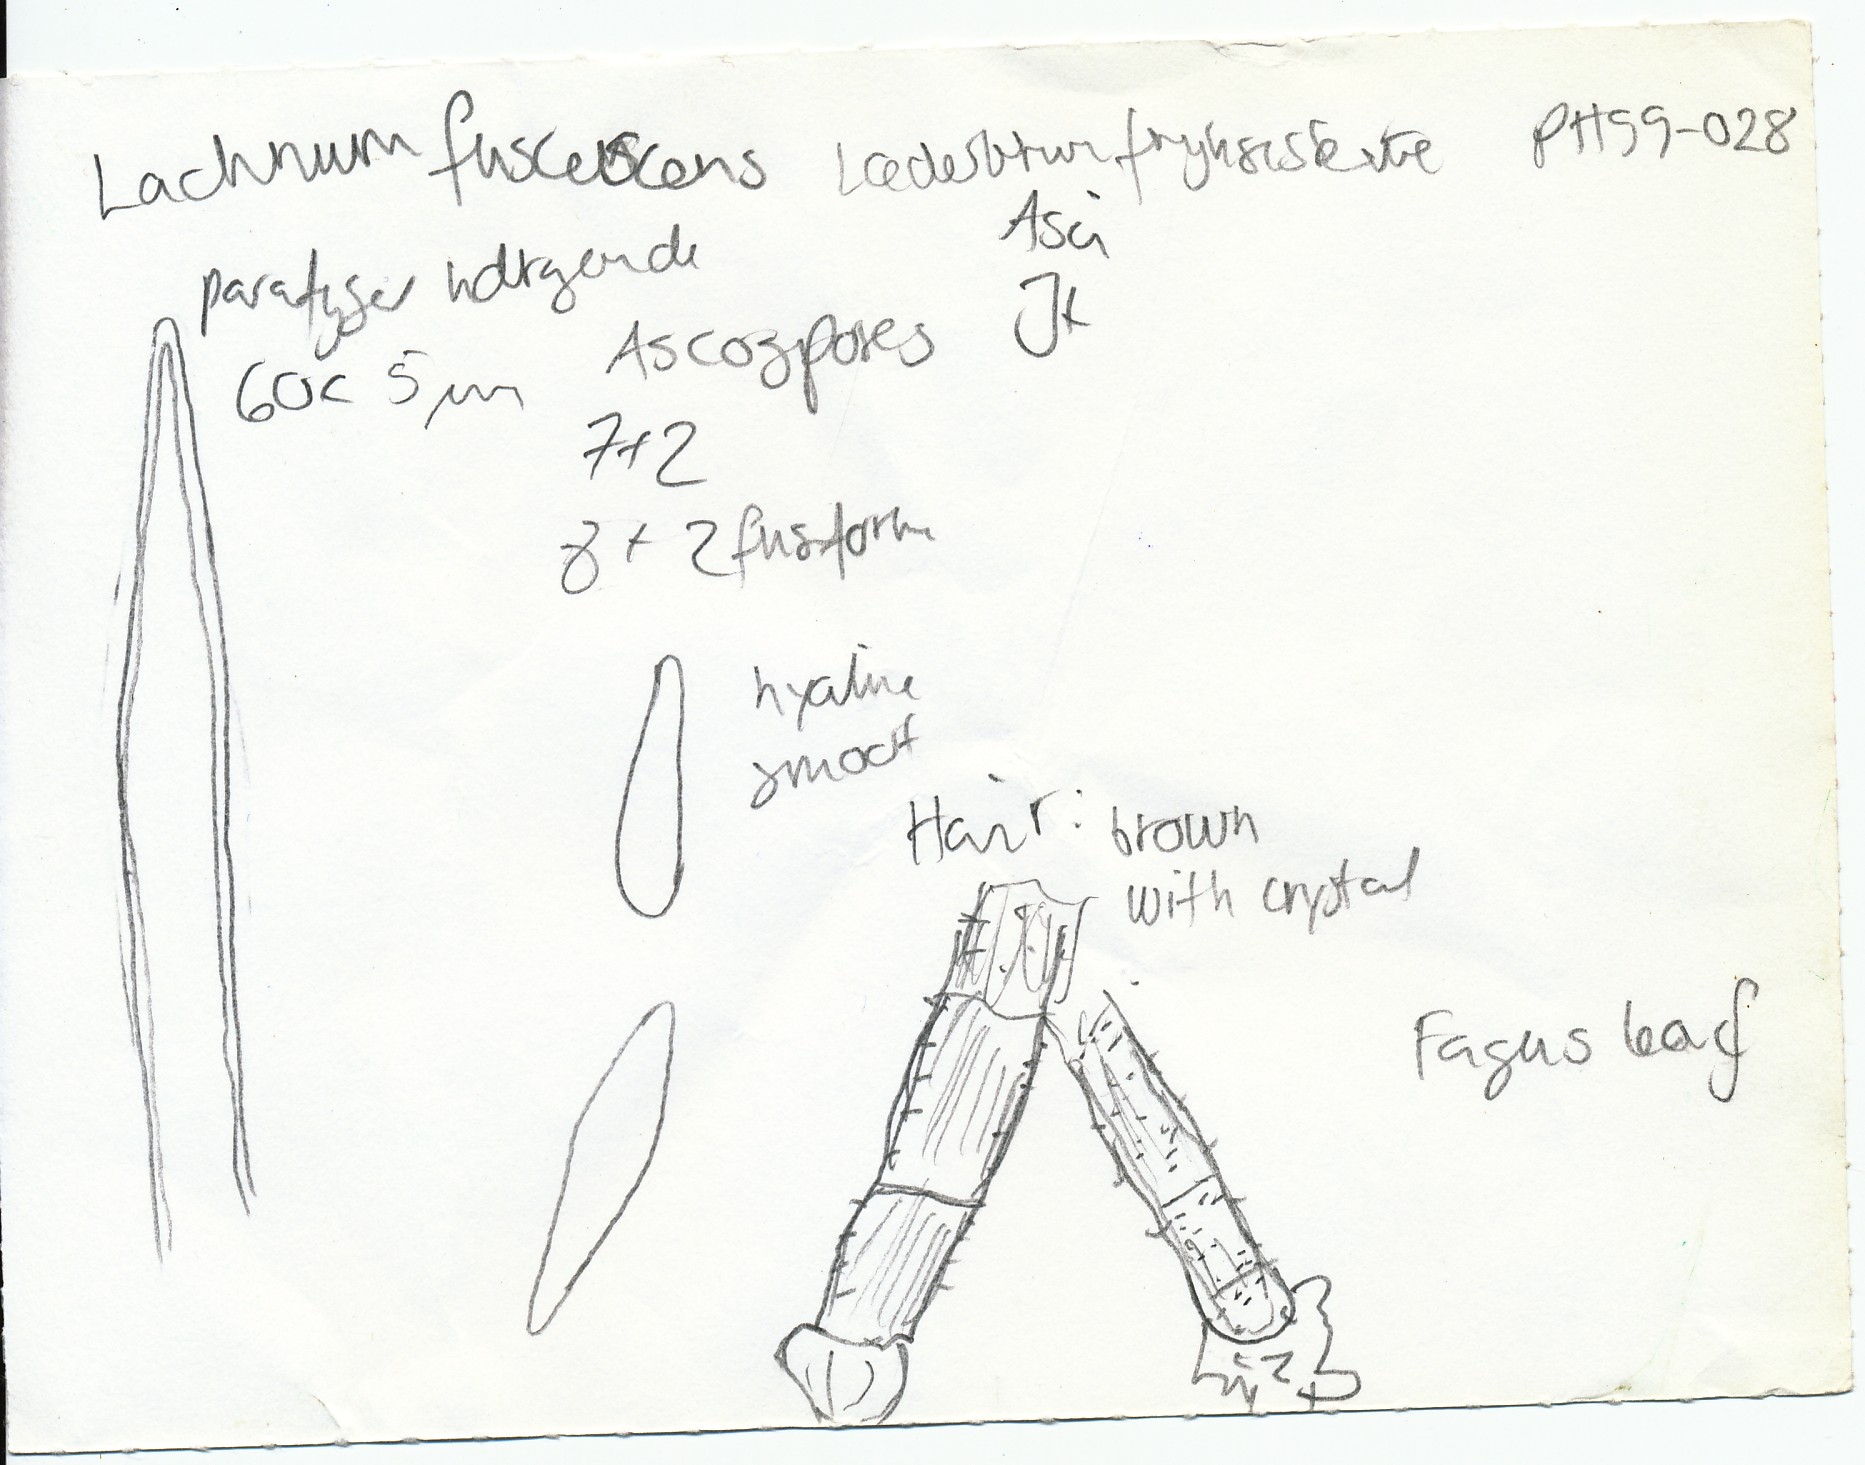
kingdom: Fungi
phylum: Ascomycota
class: Orbiliomycetes
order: Orbiliales
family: Orbiliaceae
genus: Hyalorbilia
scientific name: Hyalorbilia inflatula
